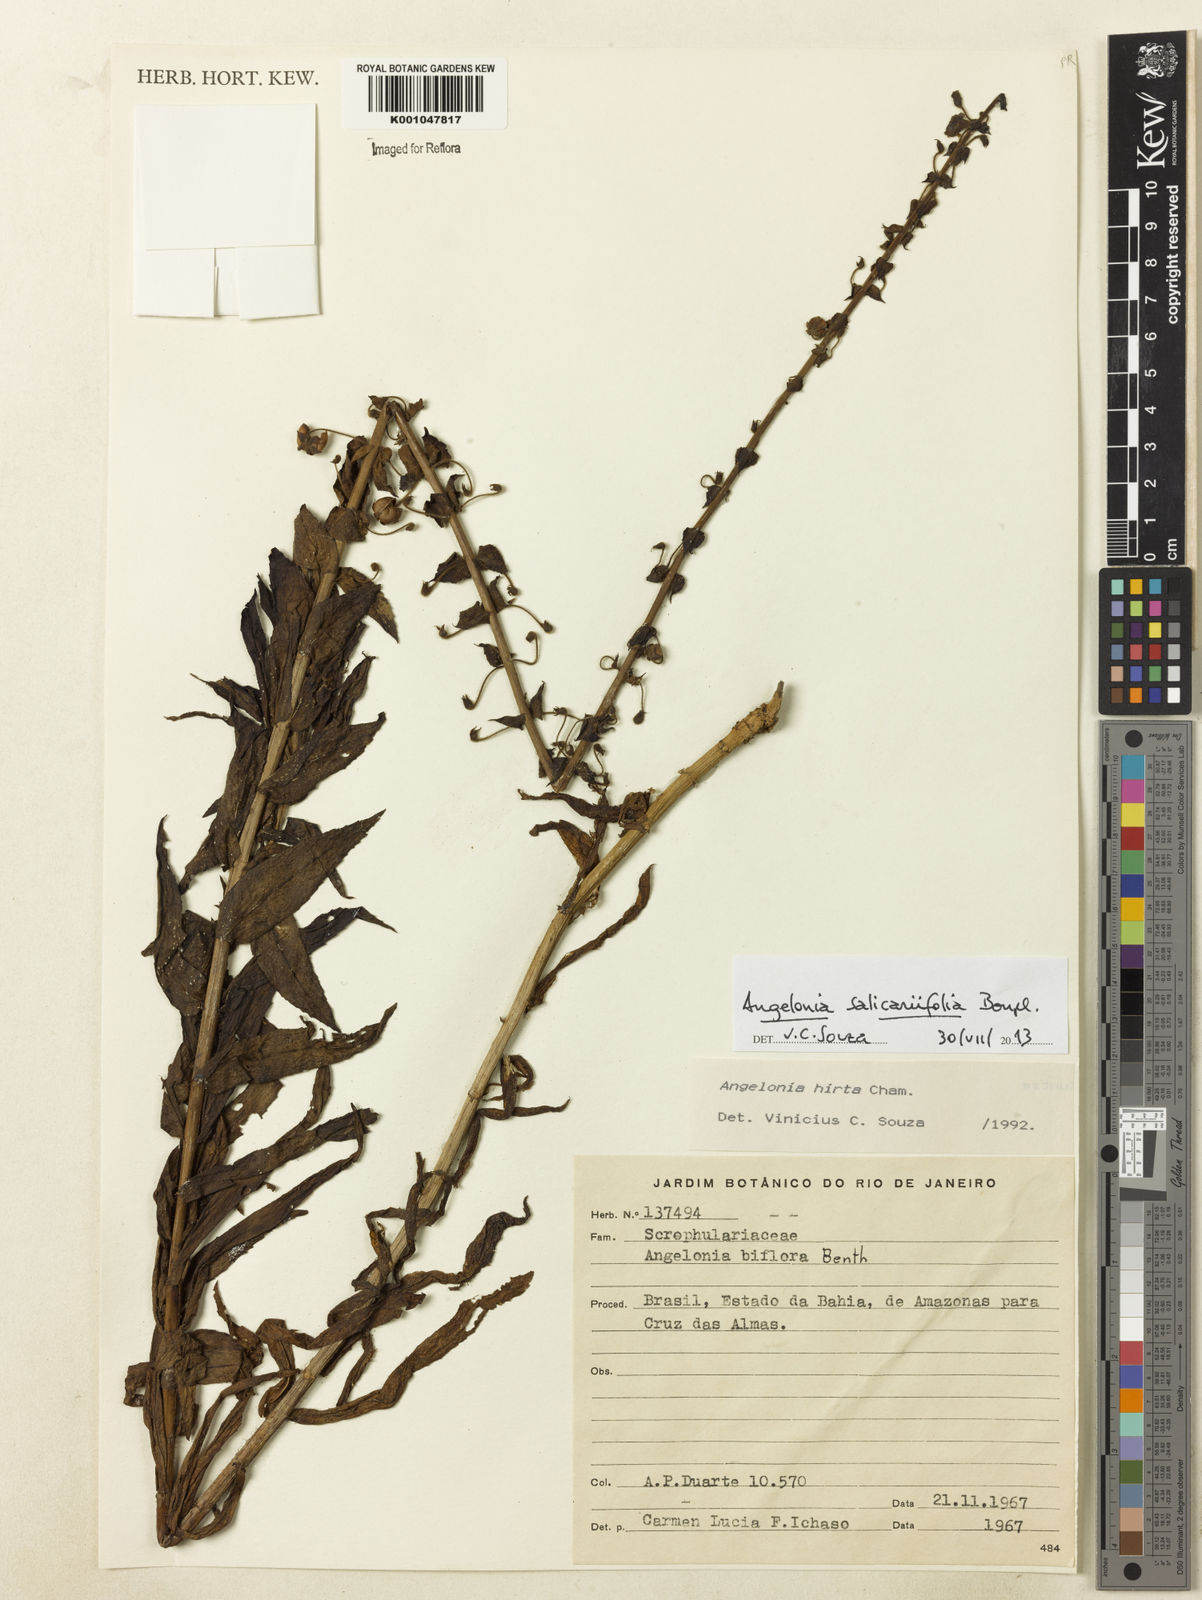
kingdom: Plantae
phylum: Tracheophyta
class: Magnoliopsida
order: Lamiales
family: Plantaginaceae
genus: Angelonia
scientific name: Angelonia salicariifolia
